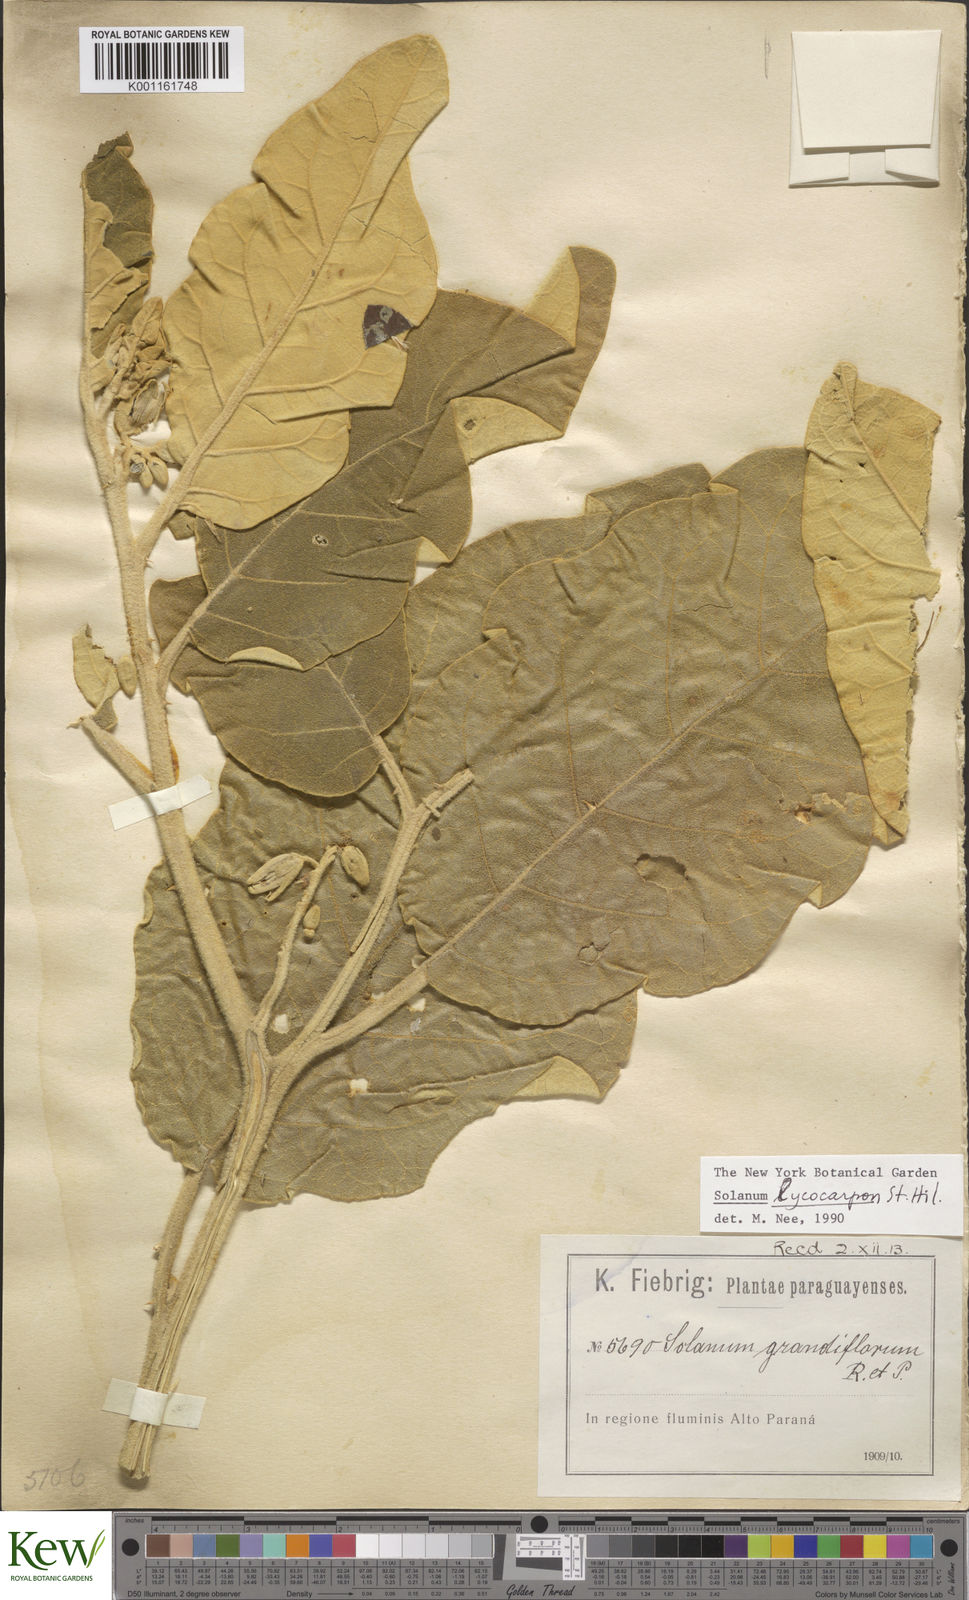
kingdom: Plantae
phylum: Tracheophyta
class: Magnoliopsida
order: Solanales
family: Solanaceae
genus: Solanum
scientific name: Solanum lycocarpum
